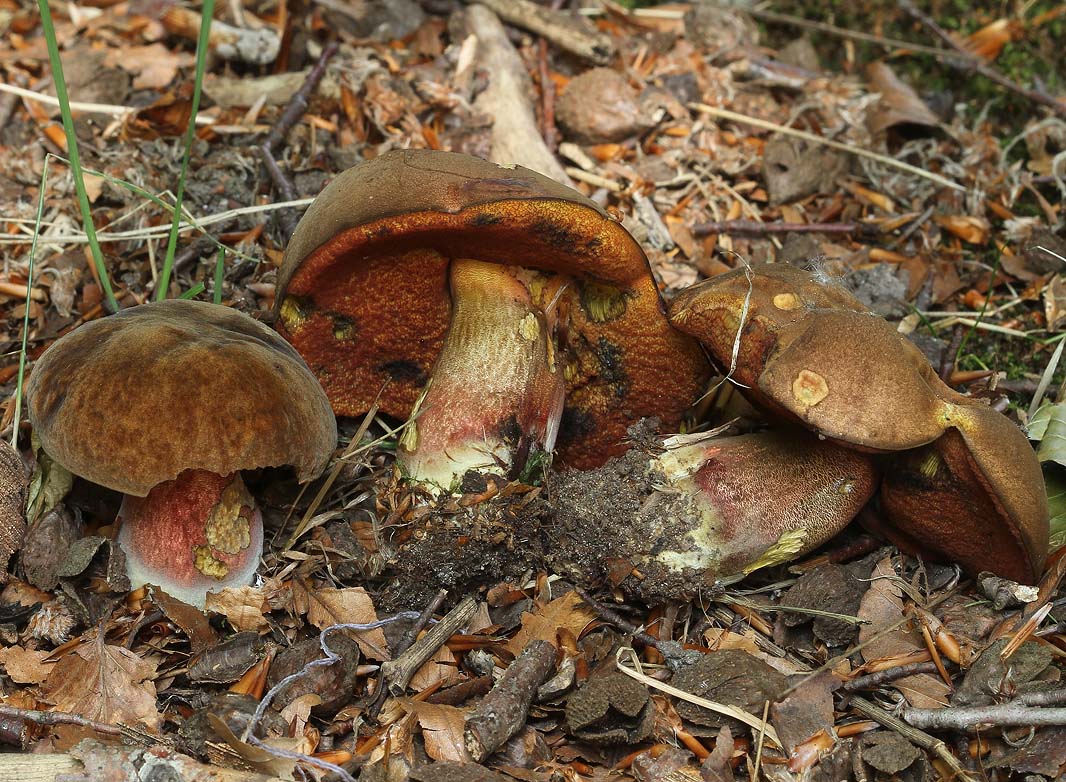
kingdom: Fungi
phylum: Basidiomycota
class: Agaricomycetes
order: Boletales
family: Boletaceae
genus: Neoboletus
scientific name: Neoboletus erythropus
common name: punktstokket indigorørhat
